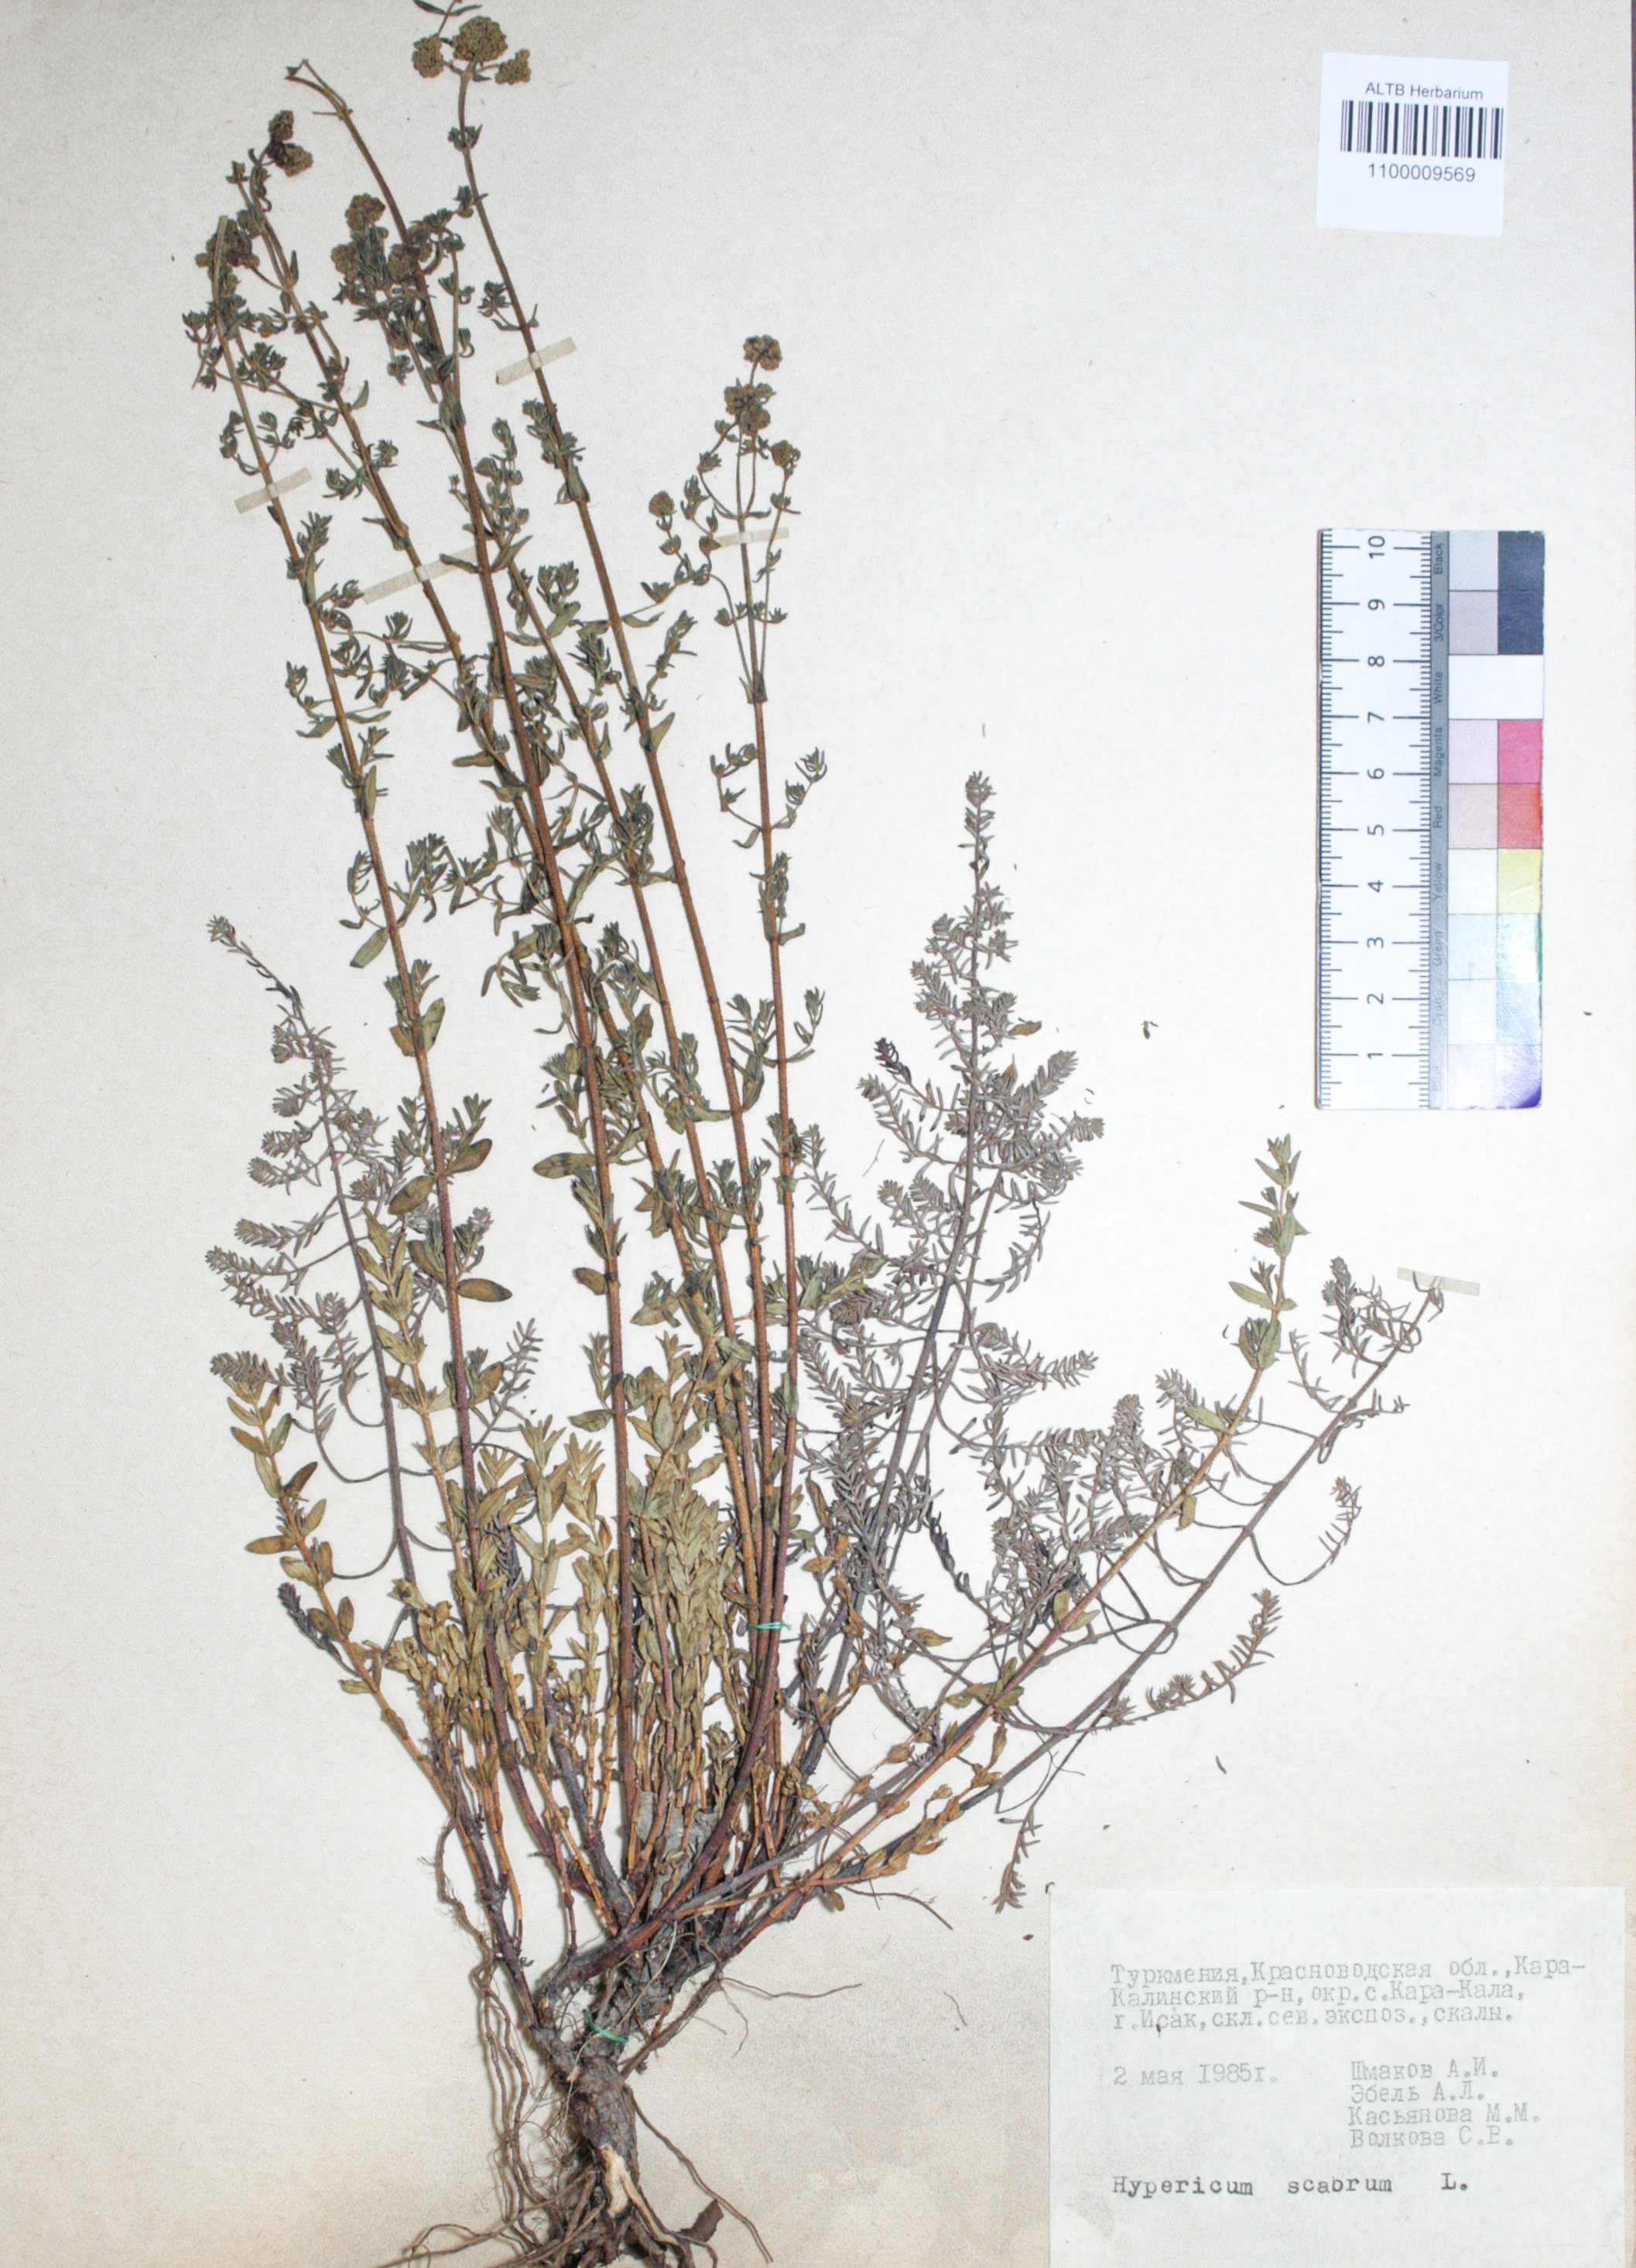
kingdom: Plantae
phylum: Tracheophyta
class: Magnoliopsida
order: Malpighiales
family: Hypericaceae
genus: Hypericum
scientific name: Hypericum scabrum
